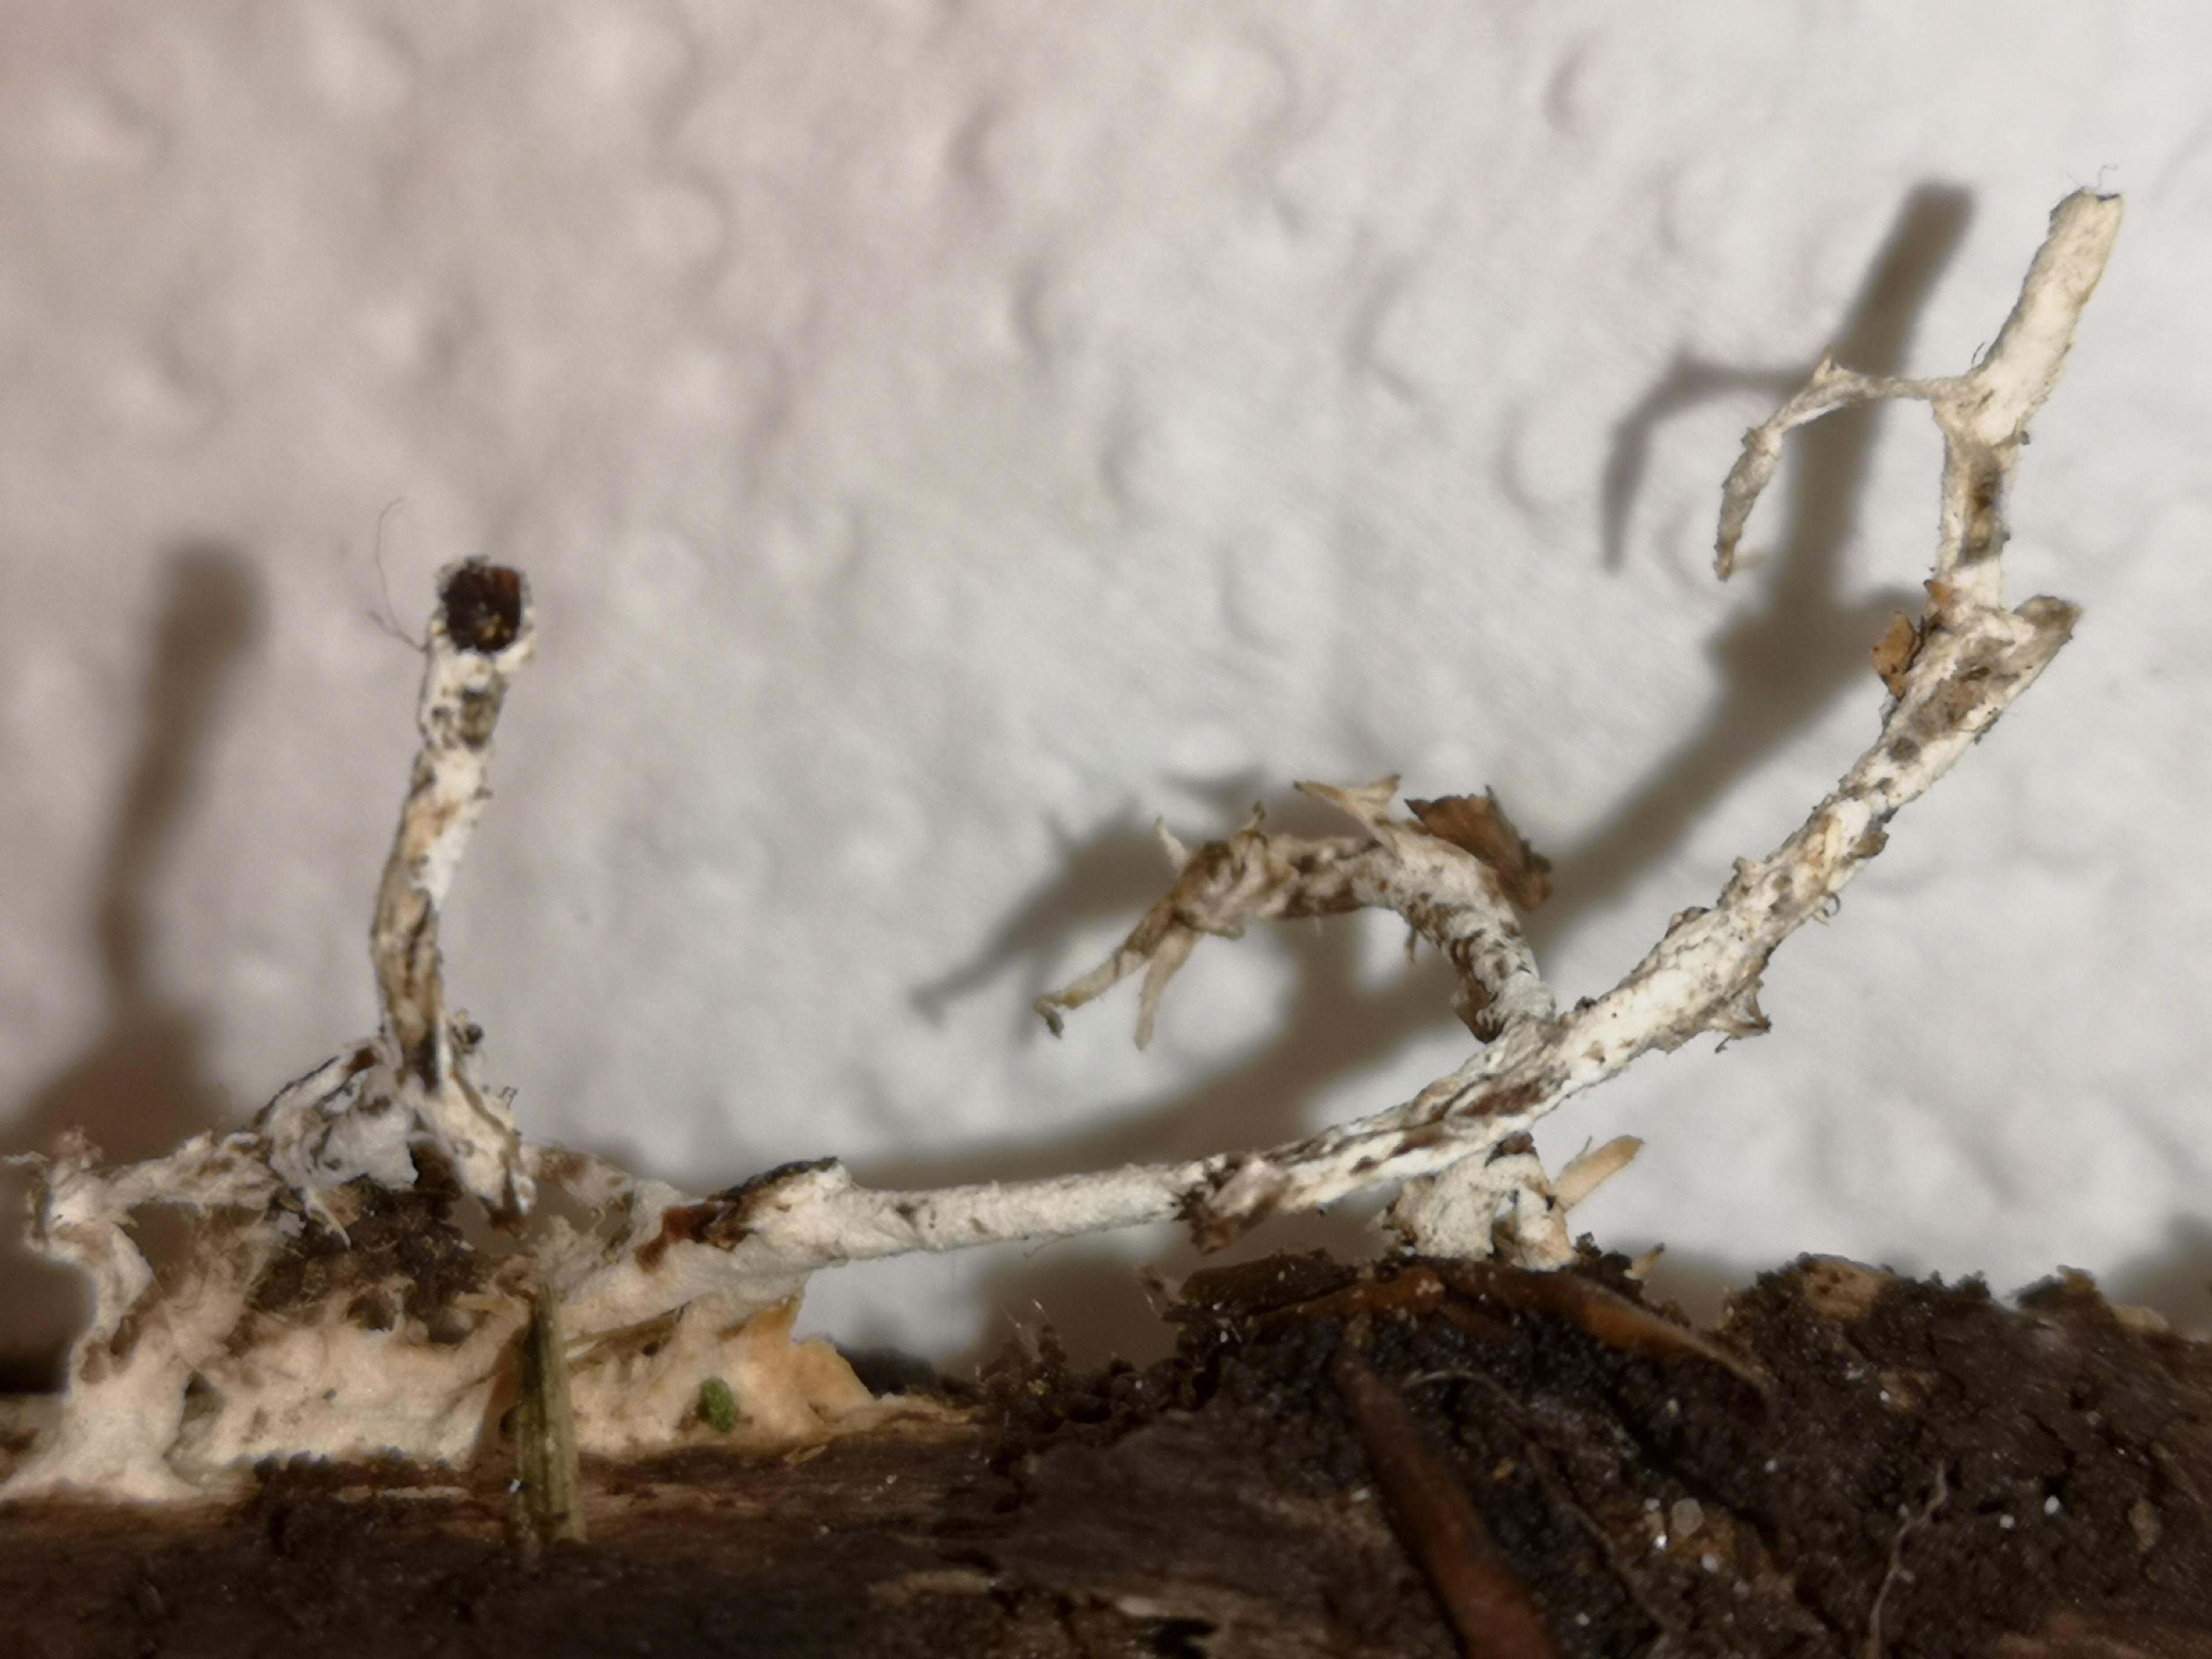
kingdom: Fungi
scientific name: Fungi
